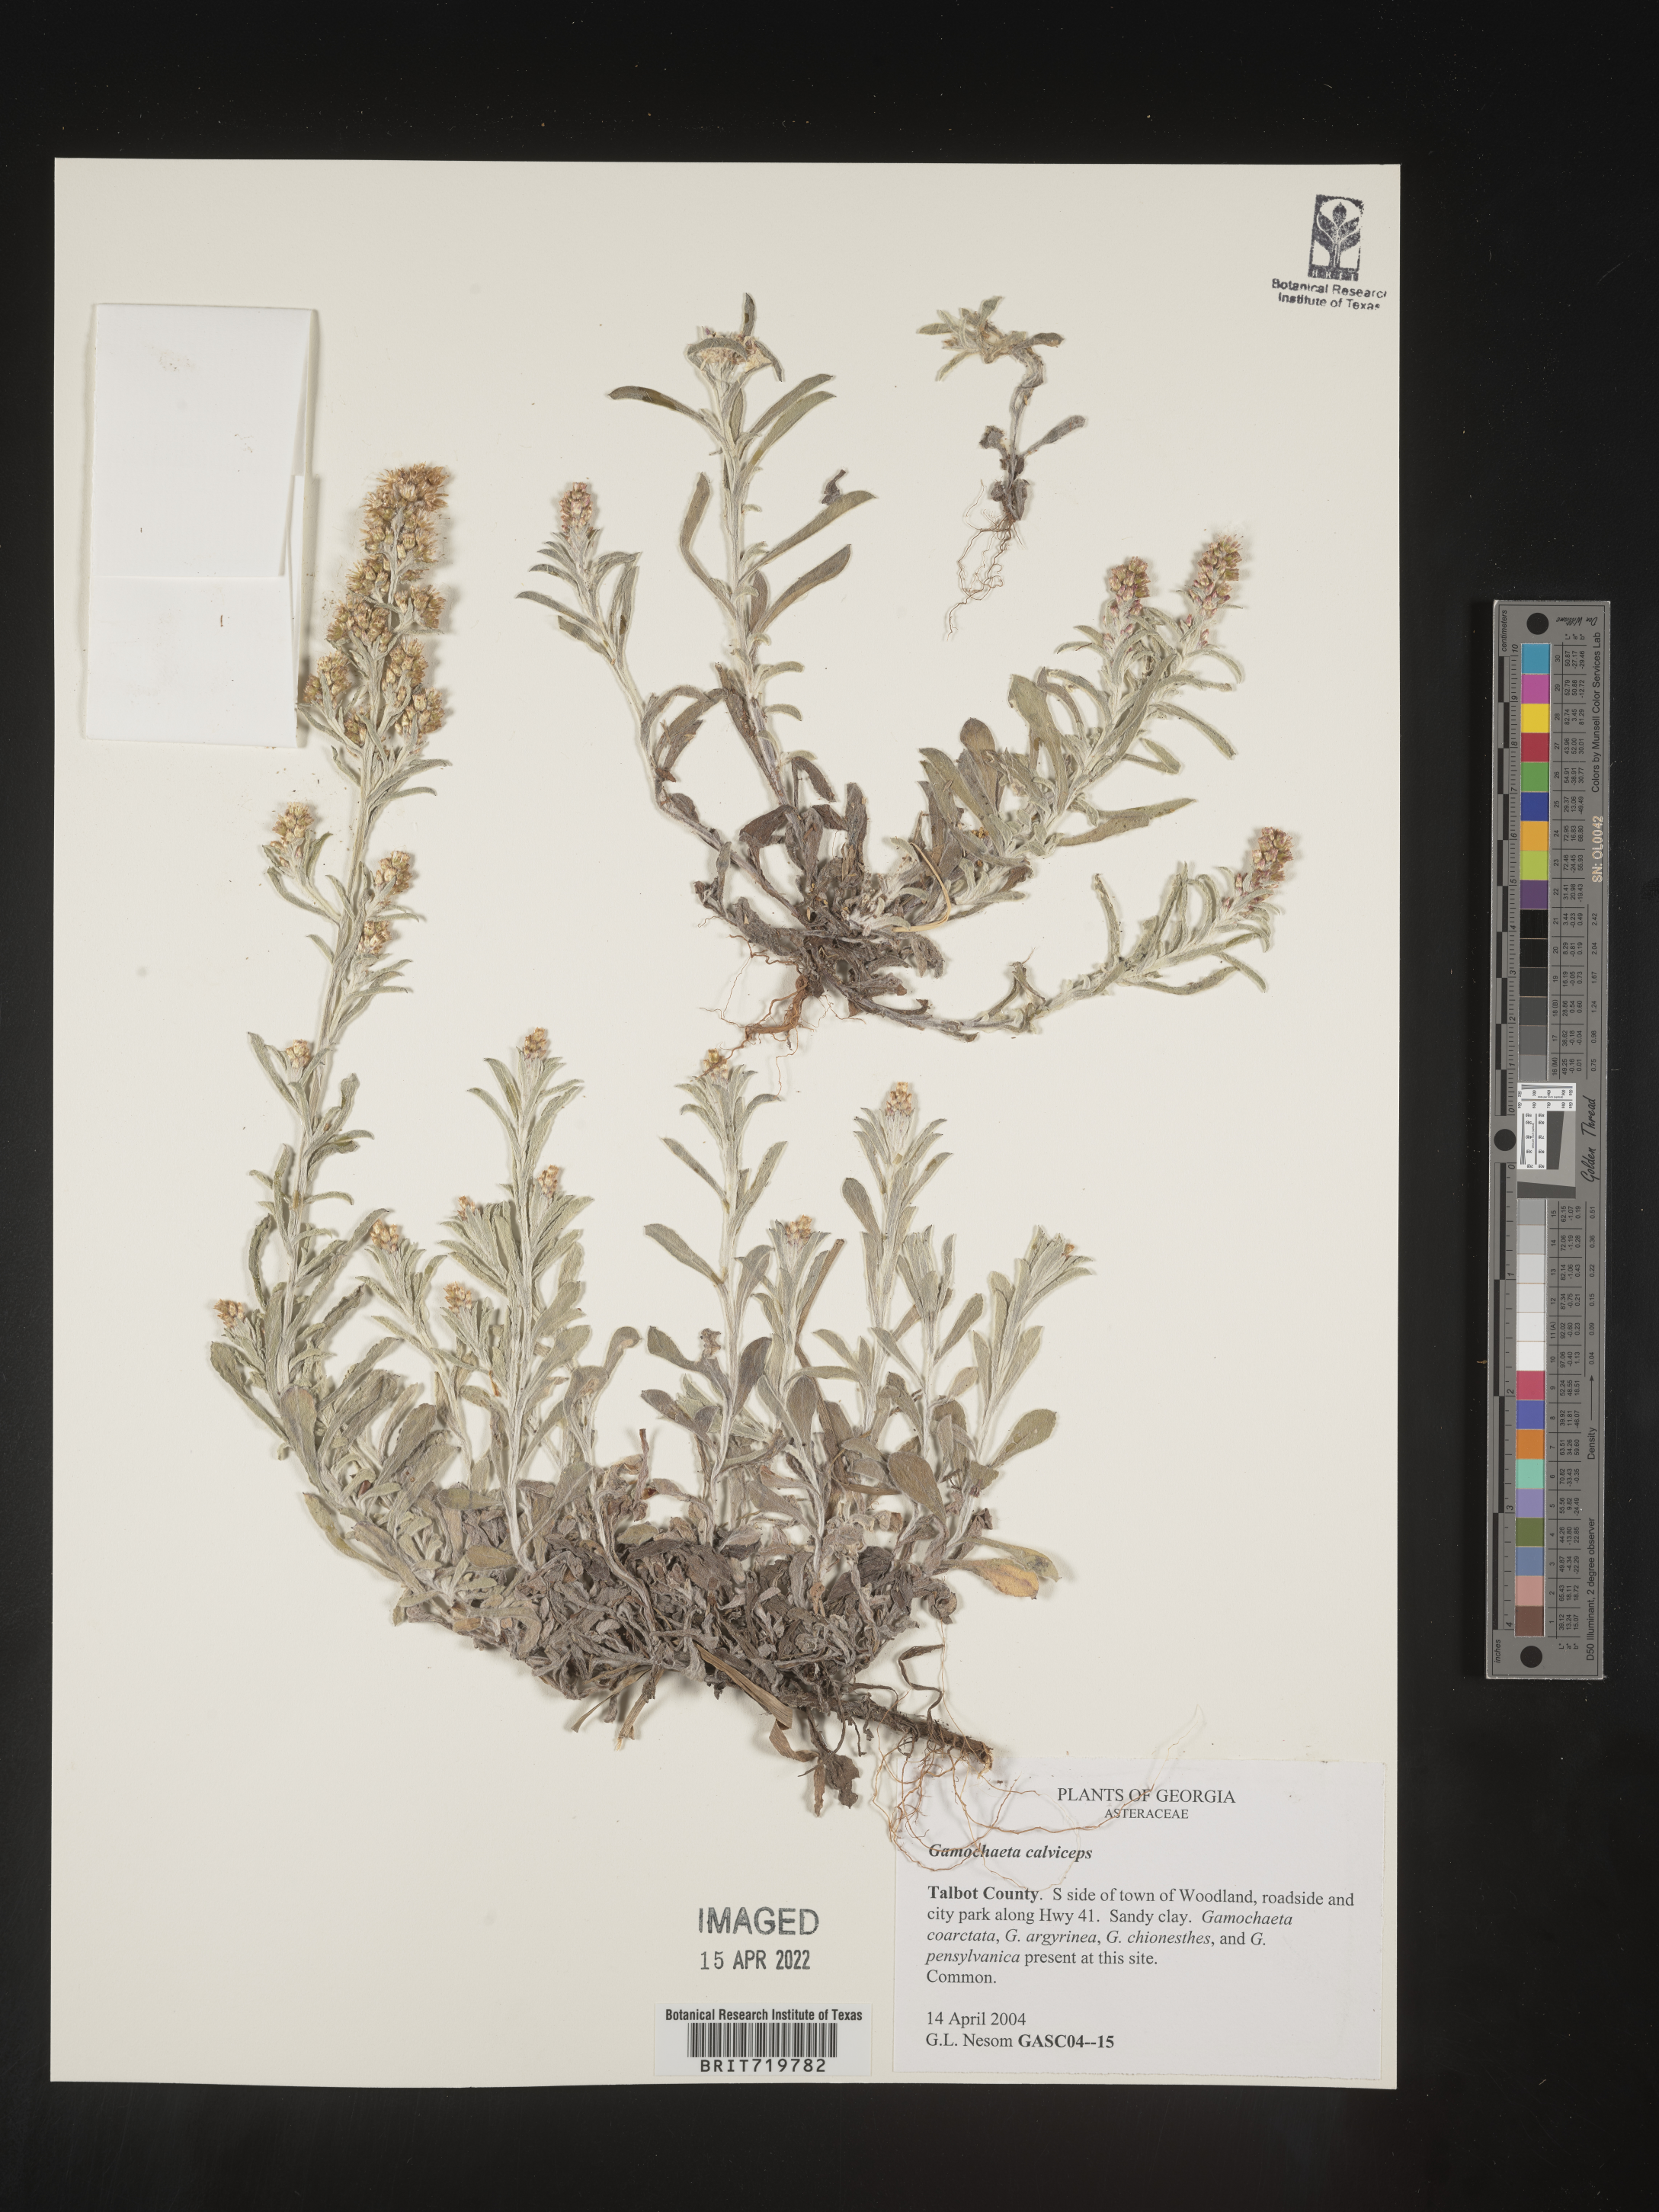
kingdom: Plantae
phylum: Tracheophyta
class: Magnoliopsida
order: Asterales
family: Asteraceae
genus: Gamochaeta
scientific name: Gamochaeta calviceps
